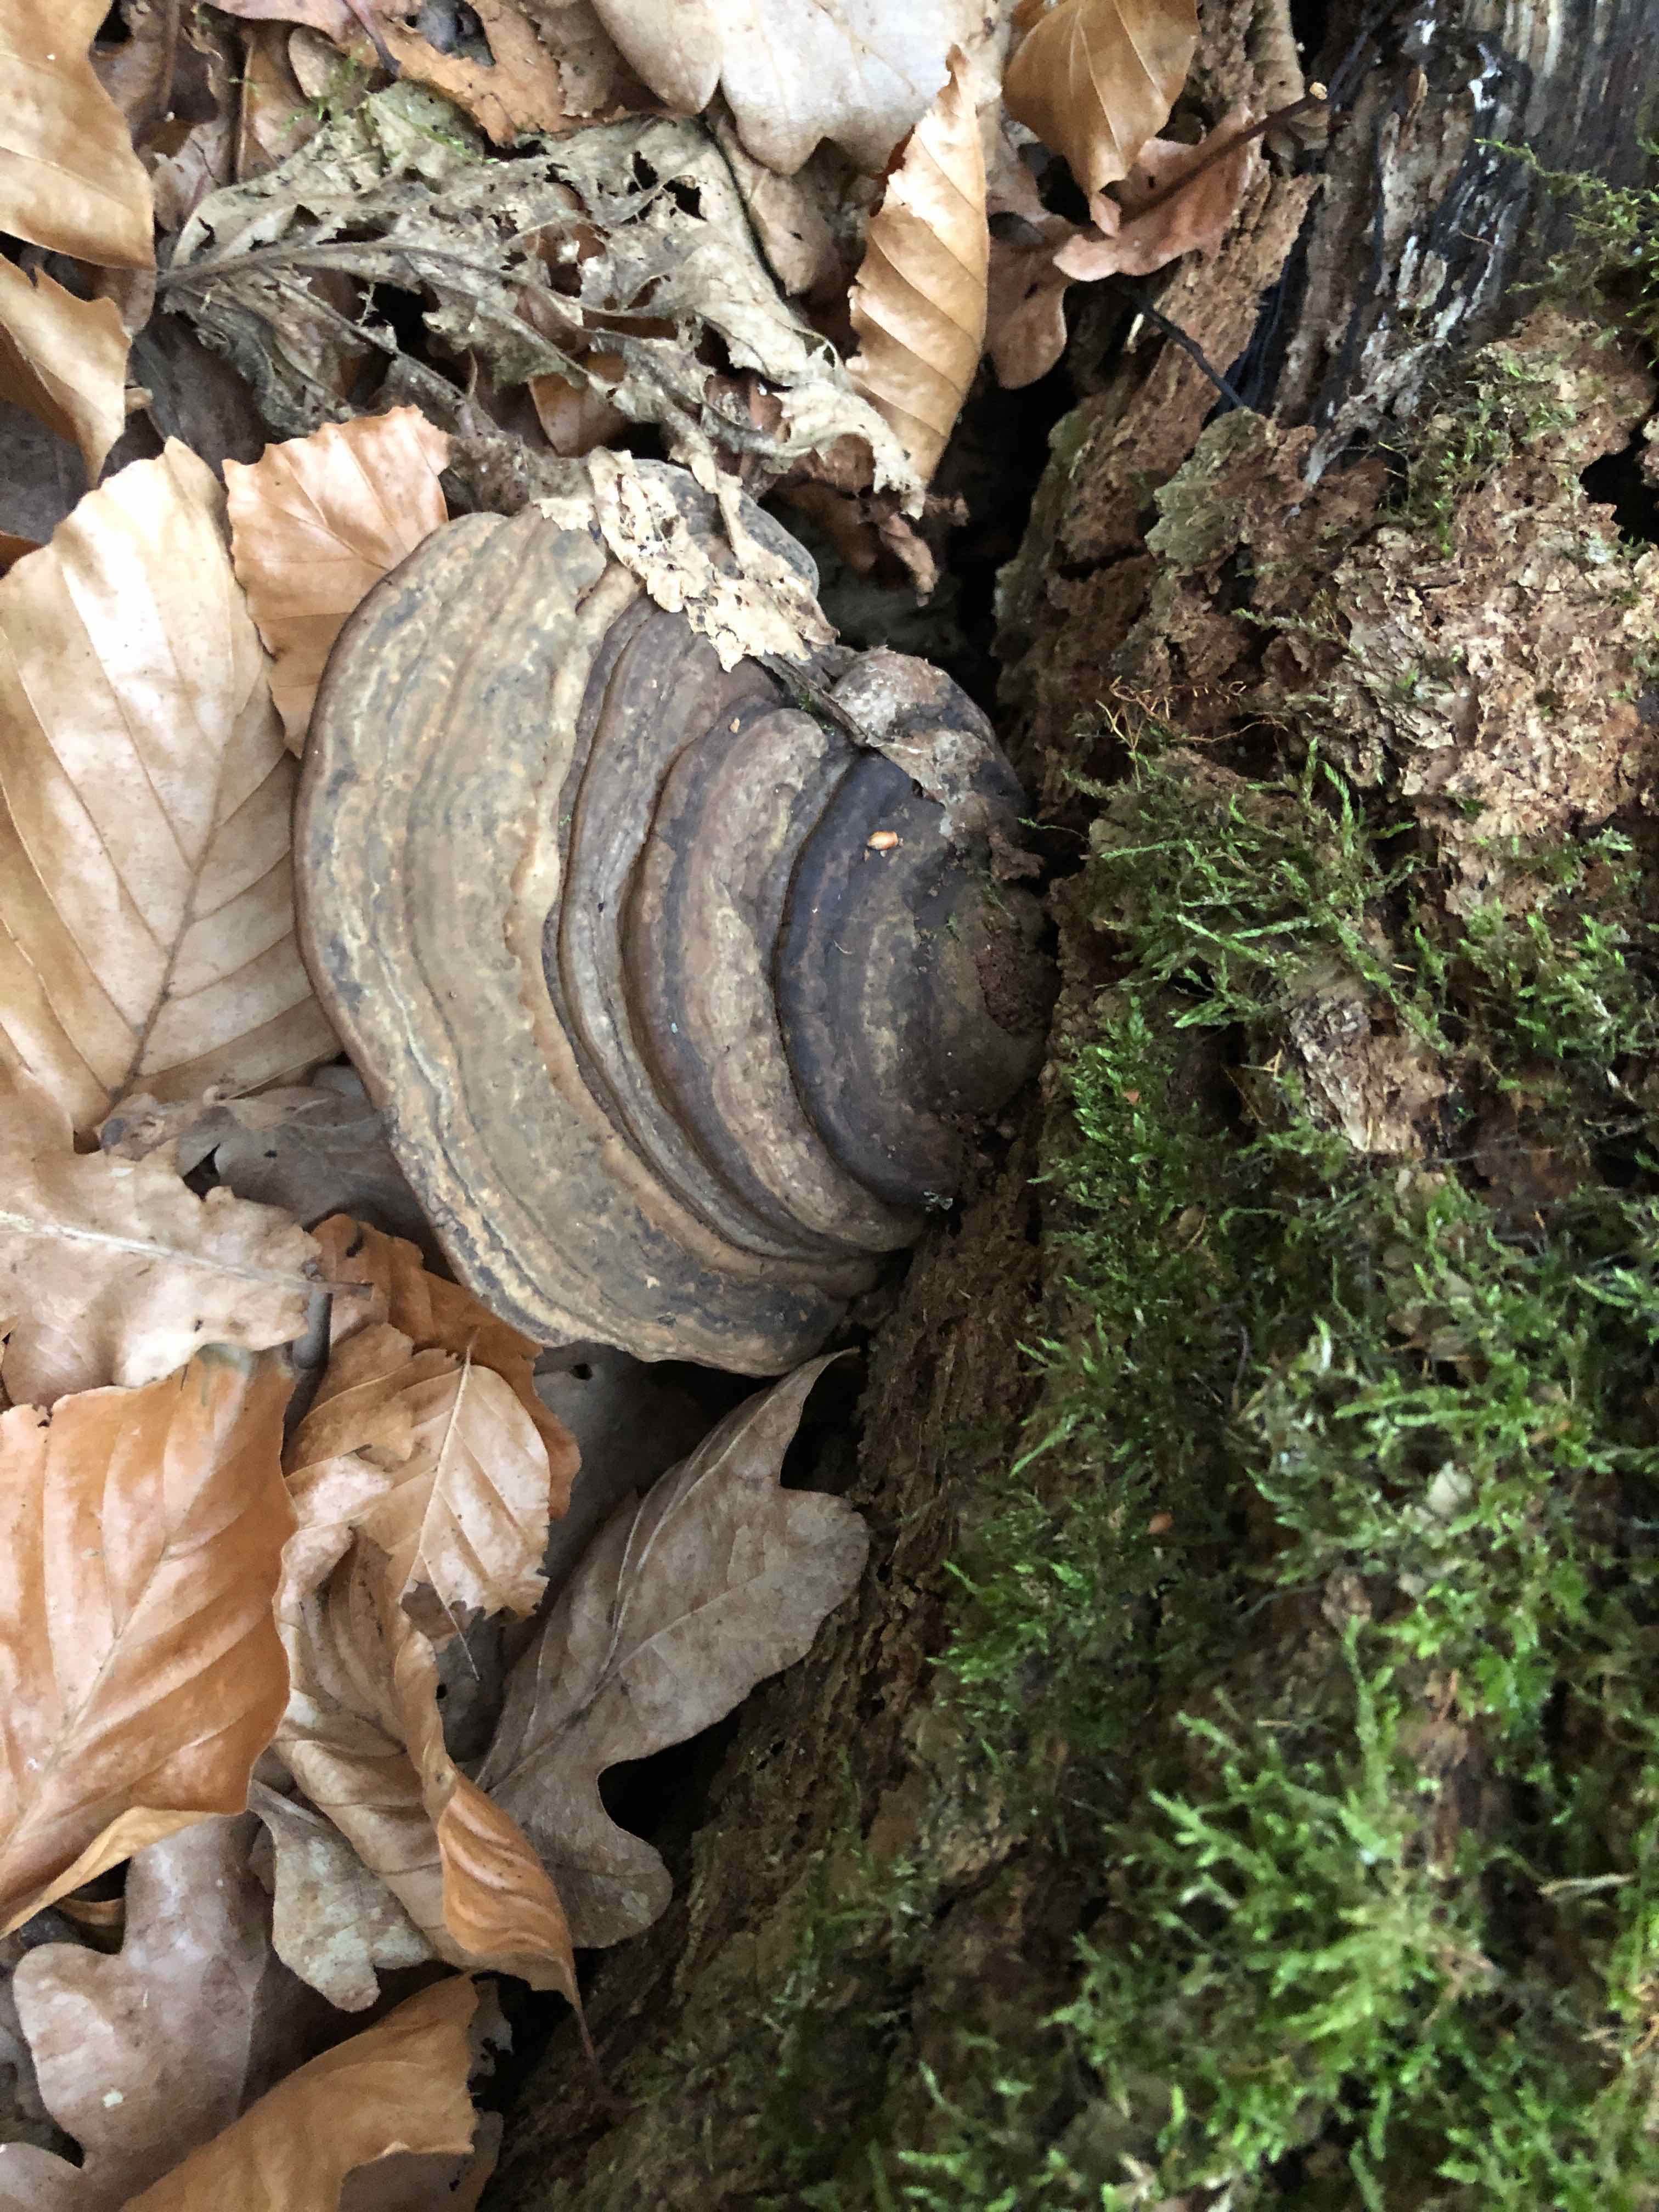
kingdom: Fungi
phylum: Basidiomycota
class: Agaricomycetes
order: Polyporales
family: Polyporaceae
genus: Ganoderma
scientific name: Ganoderma applanatum
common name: flad lakporesvamp
